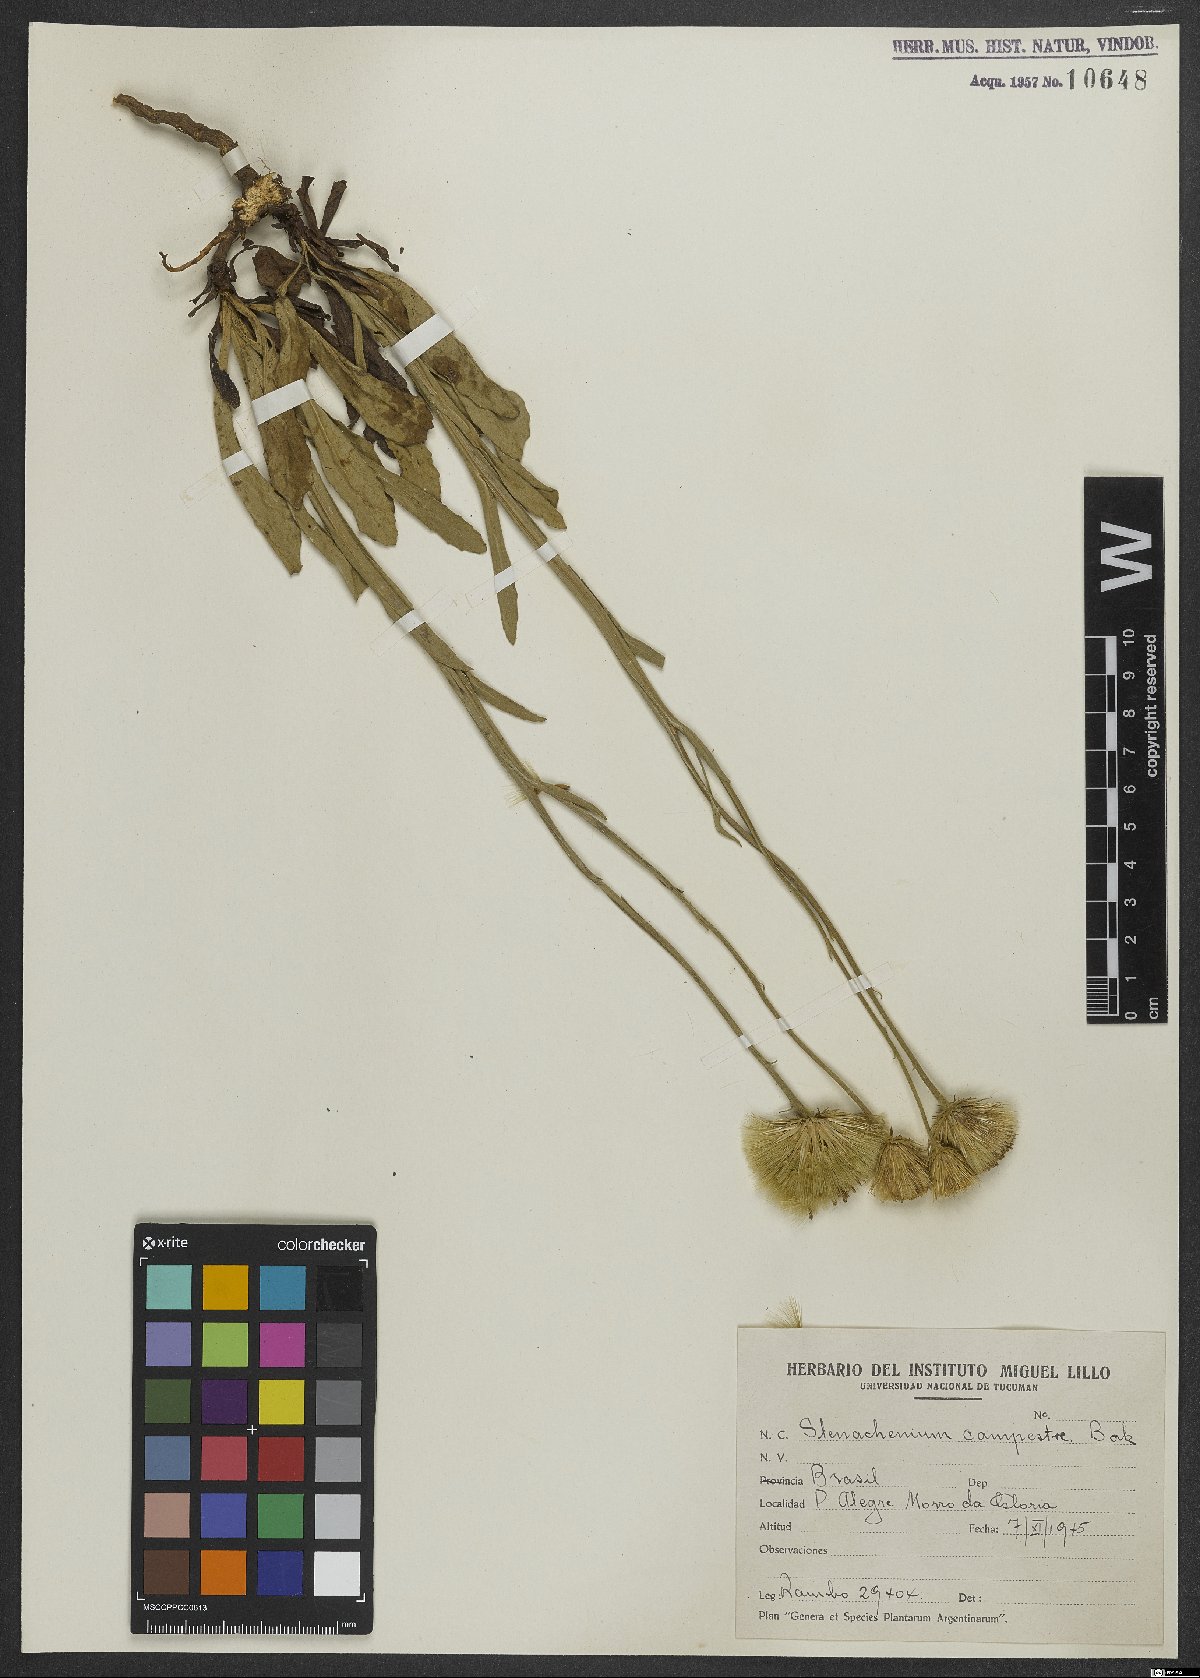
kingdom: Plantae
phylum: Tracheophyta
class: Magnoliopsida
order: Asterales
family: Asteraceae
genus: Stenachaenium
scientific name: Stenachaenium campestre
